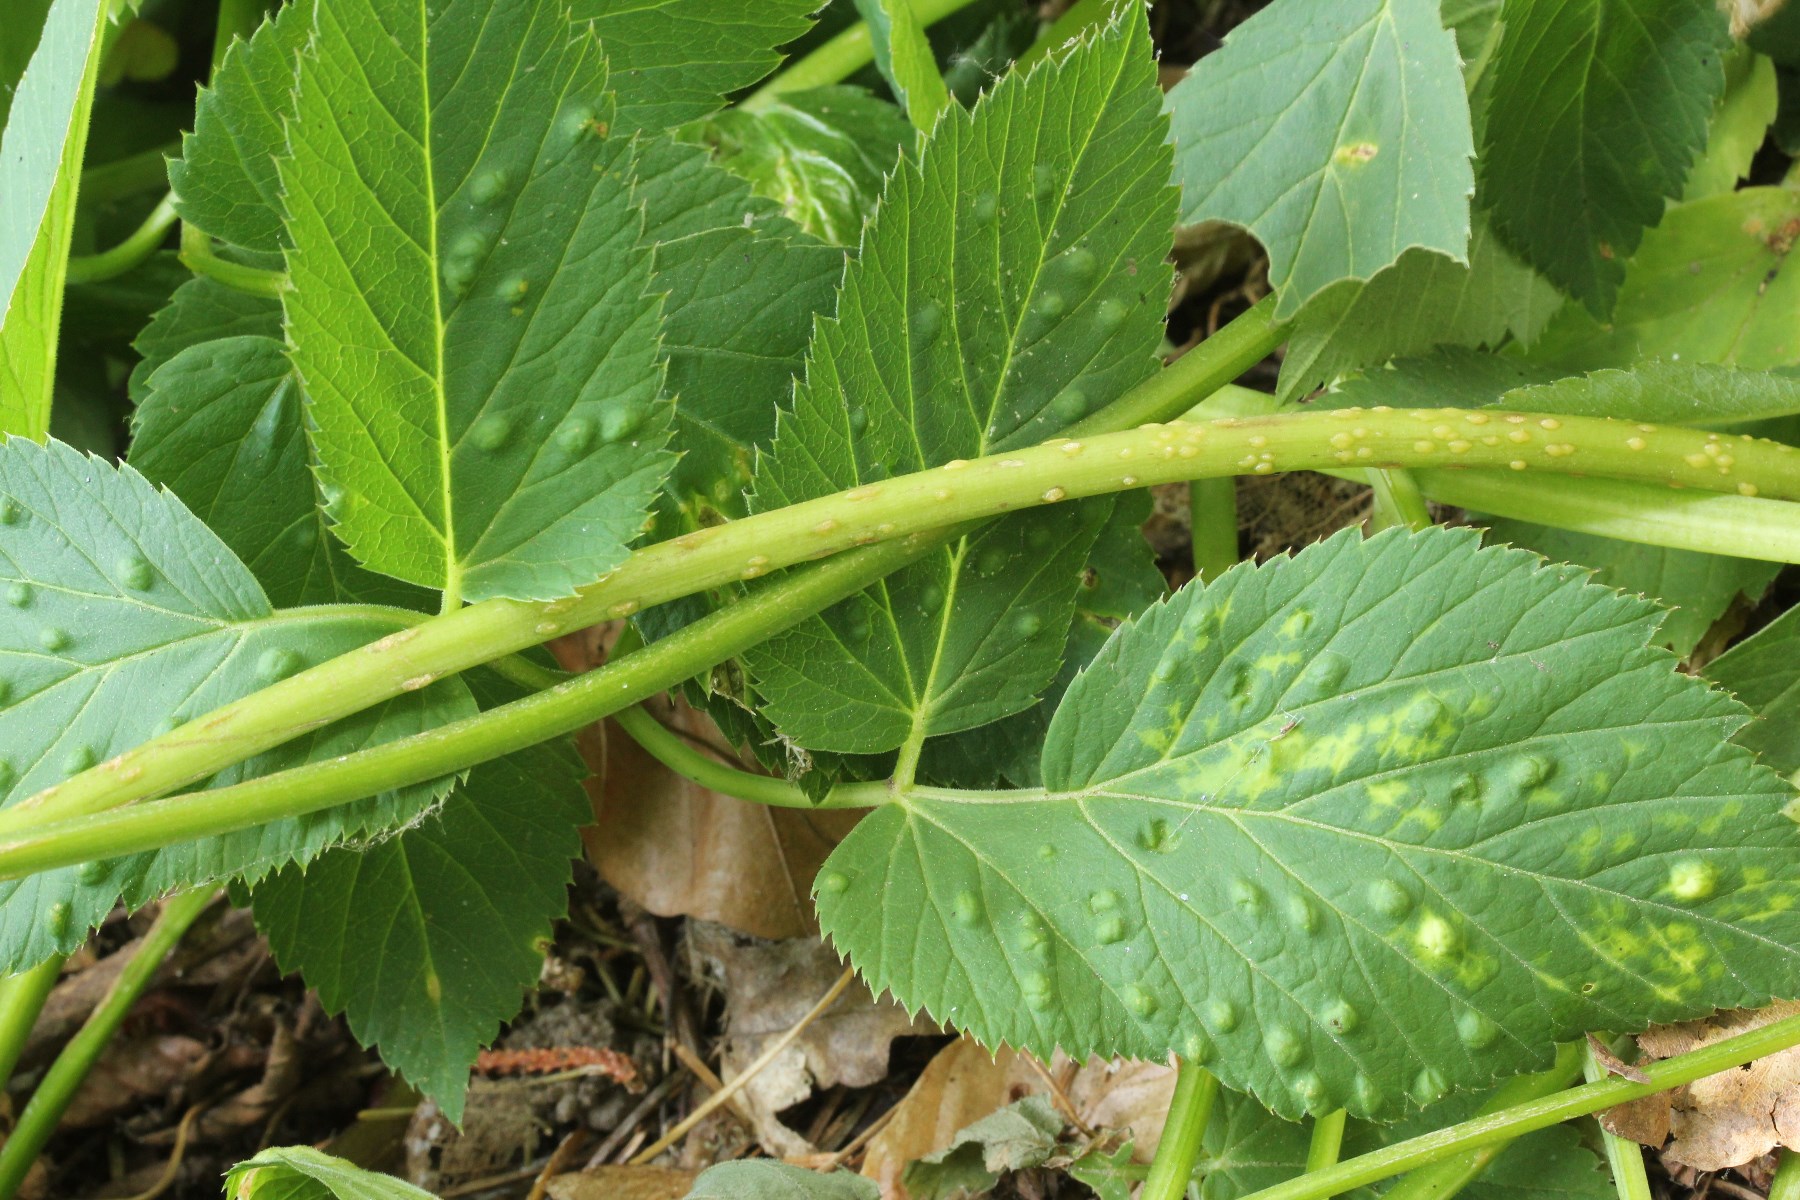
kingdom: Fungi
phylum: Ascomycota
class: Taphrinomycetes
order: Taphrinales
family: Taphrinaceae
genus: Protomyces
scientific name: Protomyces macrosporus
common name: skvalderkål-vablesæk
